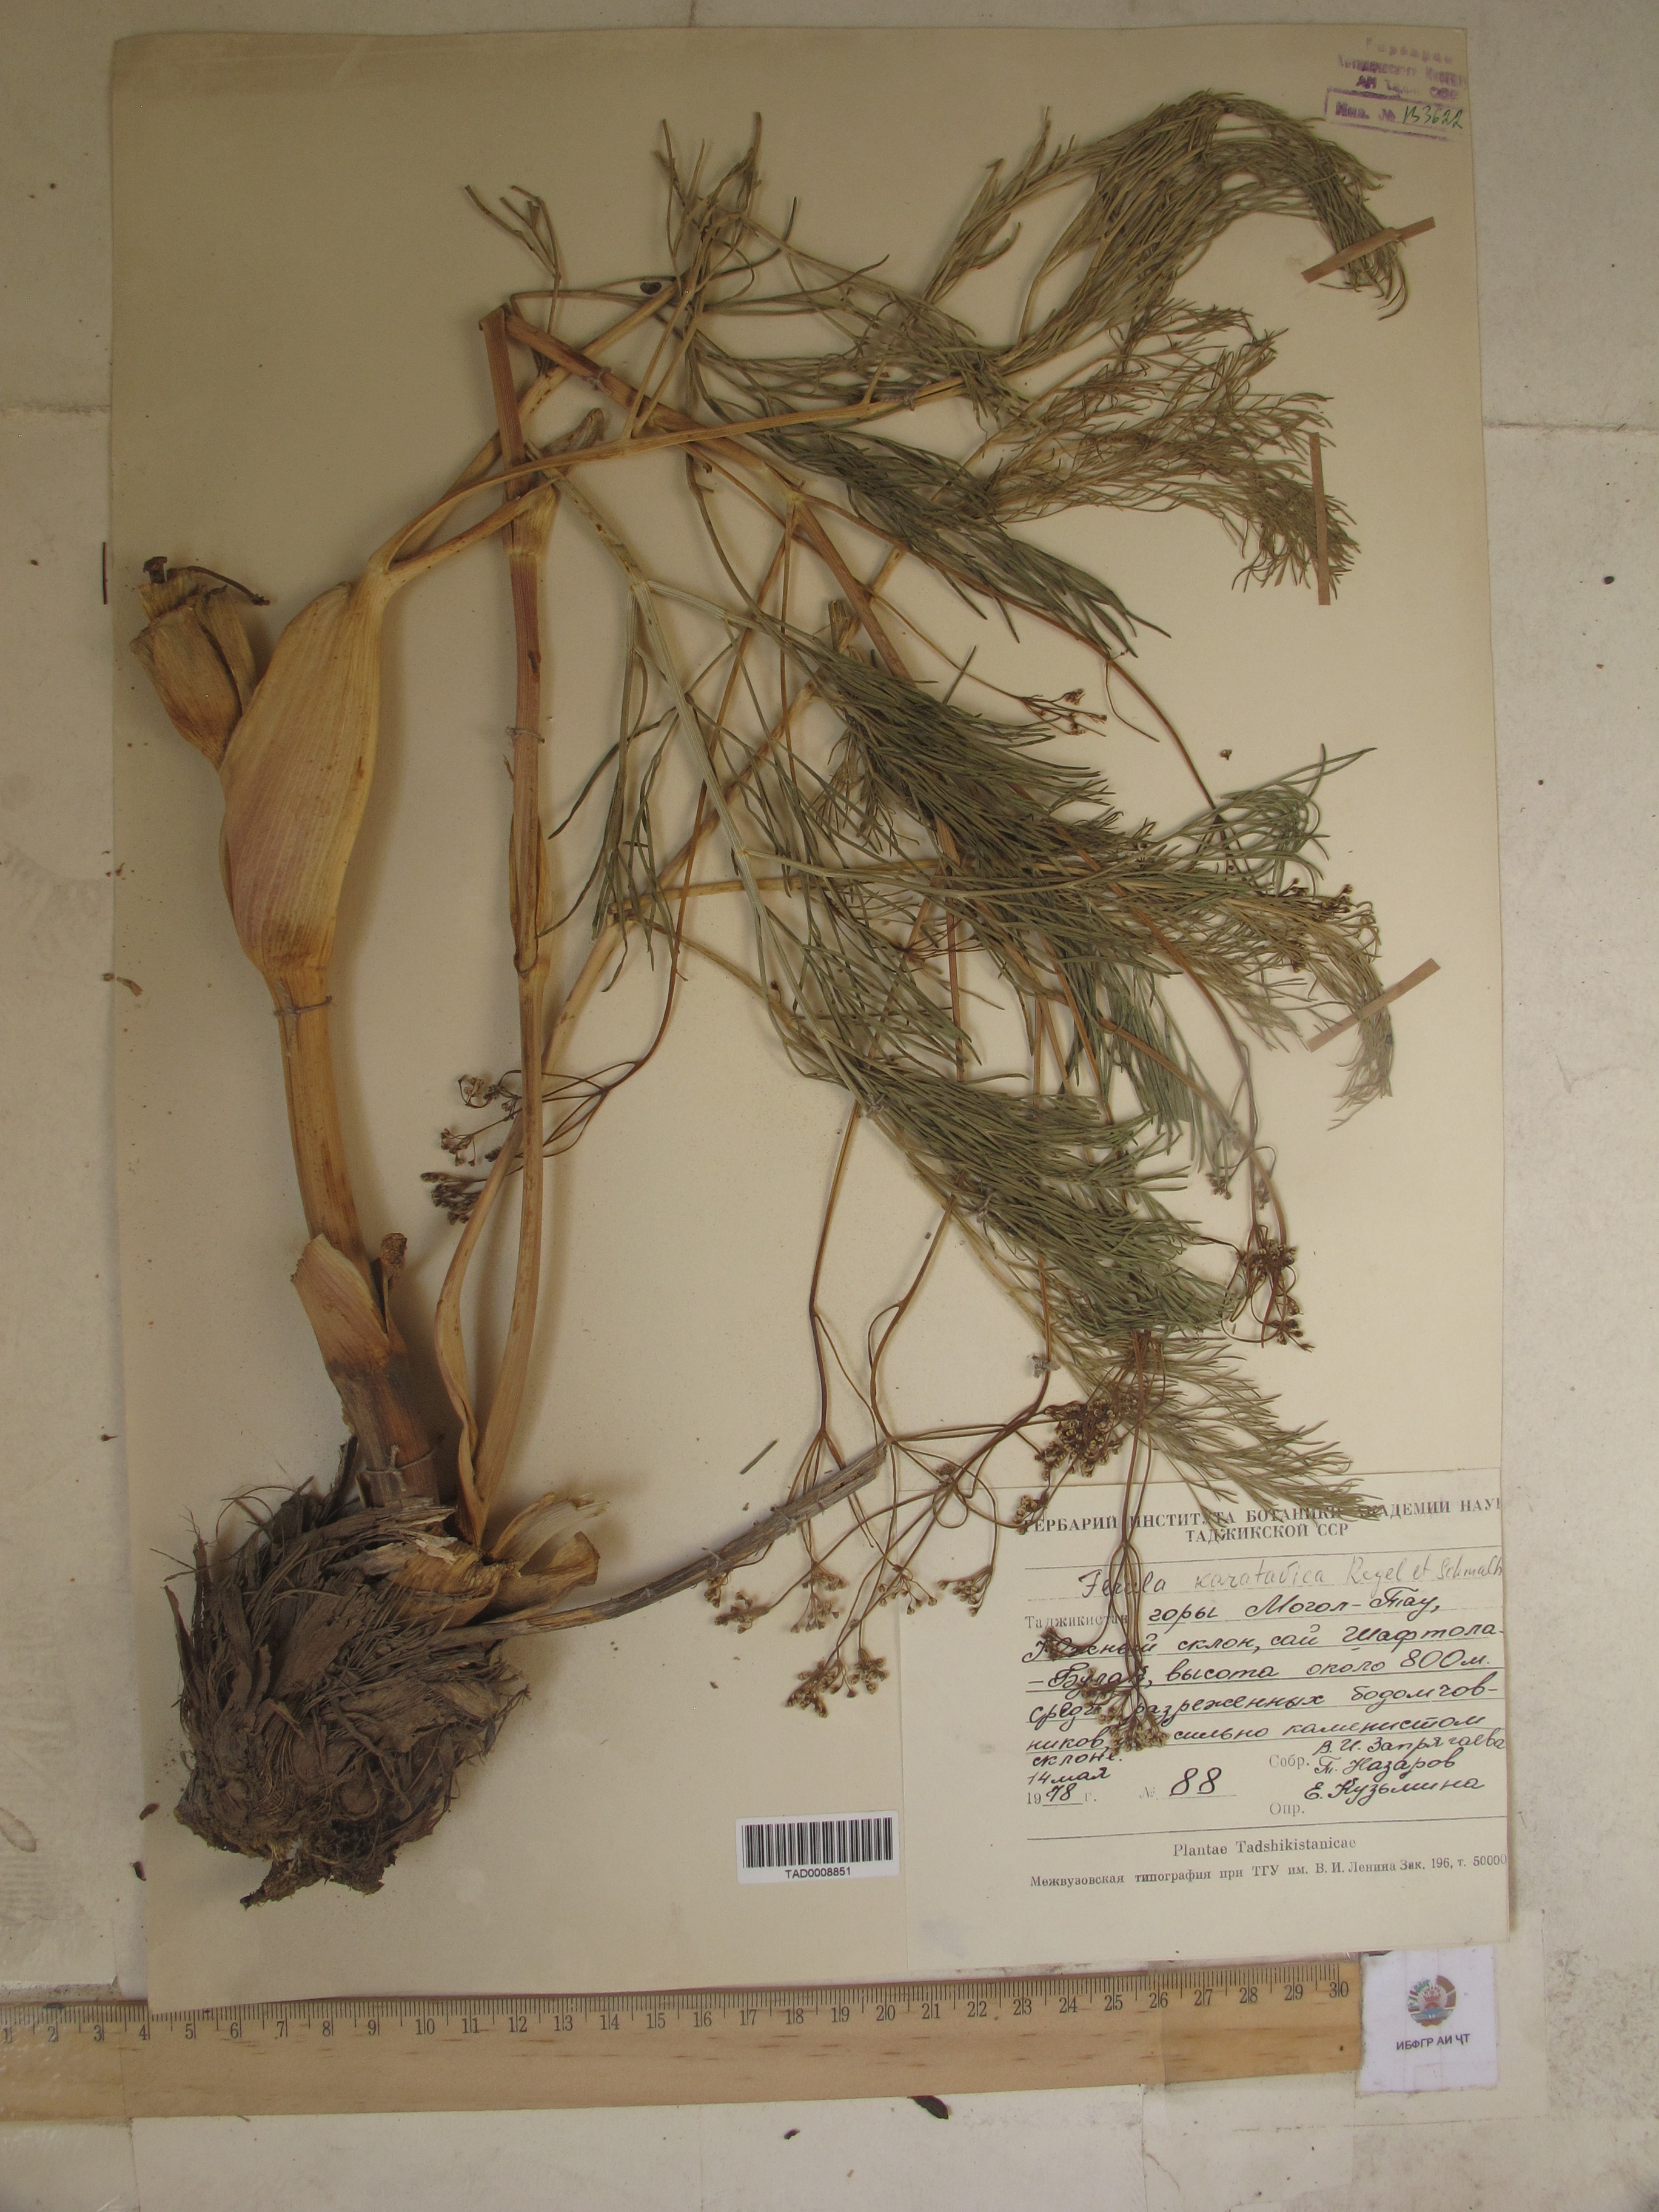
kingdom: Plantae
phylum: Tracheophyta
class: Magnoliopsida
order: Apiales
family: Apiaceae
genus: Ferula
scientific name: Ferula karatavica
